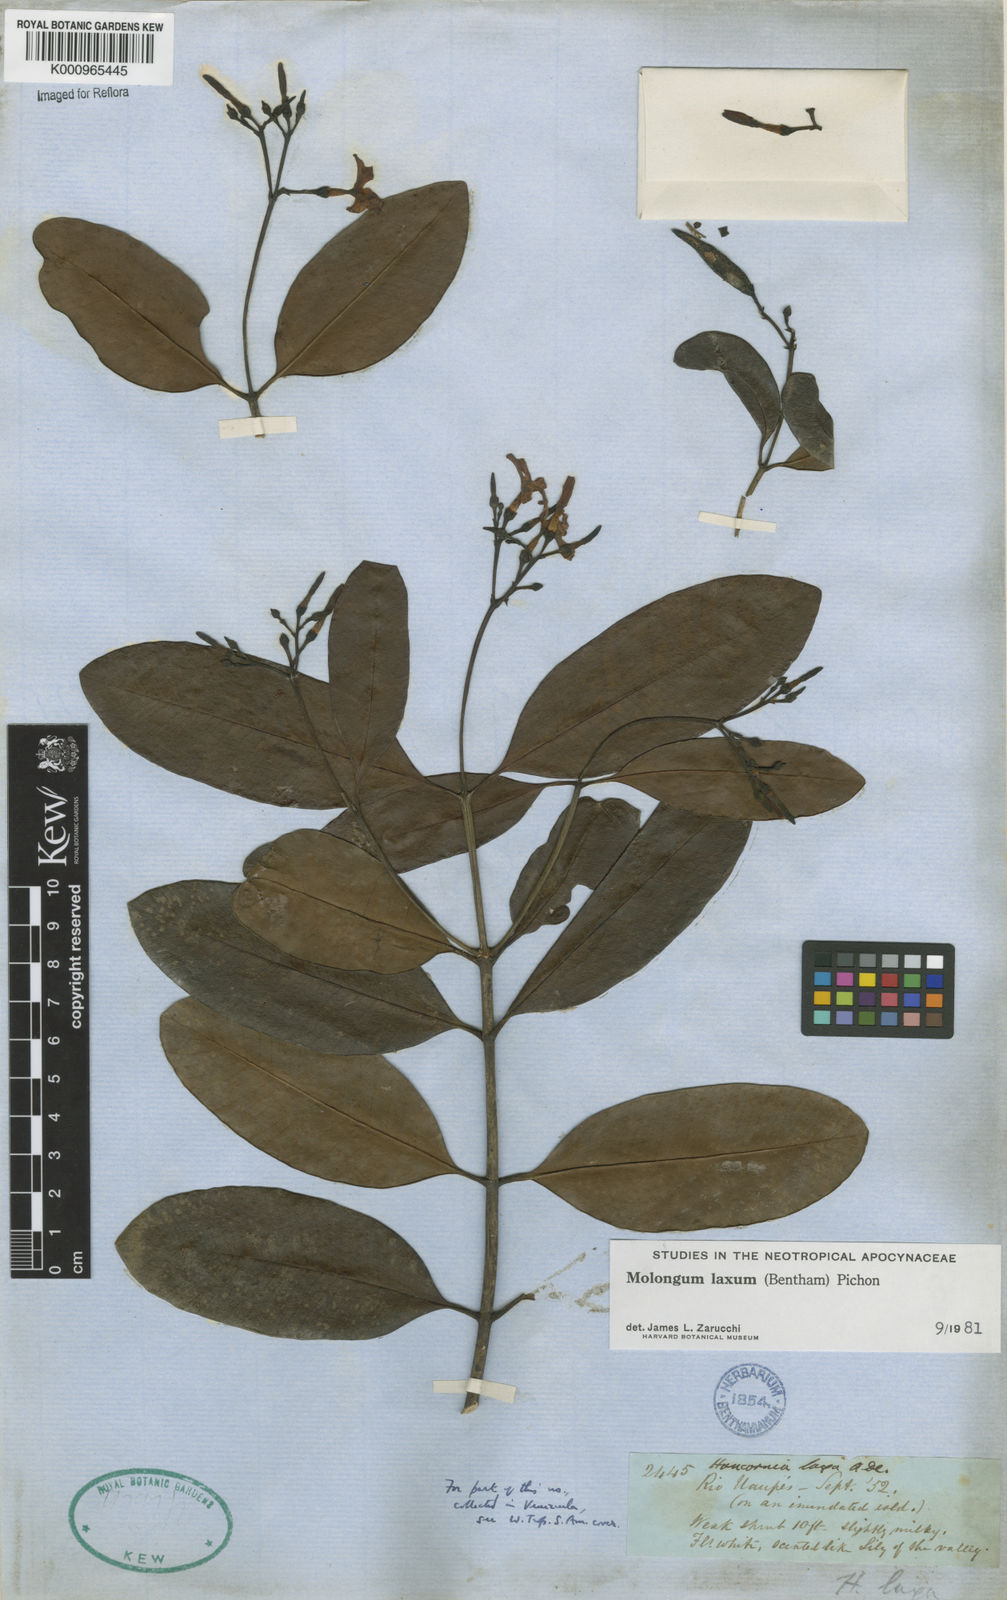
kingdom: Plantae
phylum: Tracheophyta
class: Magnoliopsida
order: Gentianales
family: Apocynaceae
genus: Molongum
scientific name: Molongum laxum
